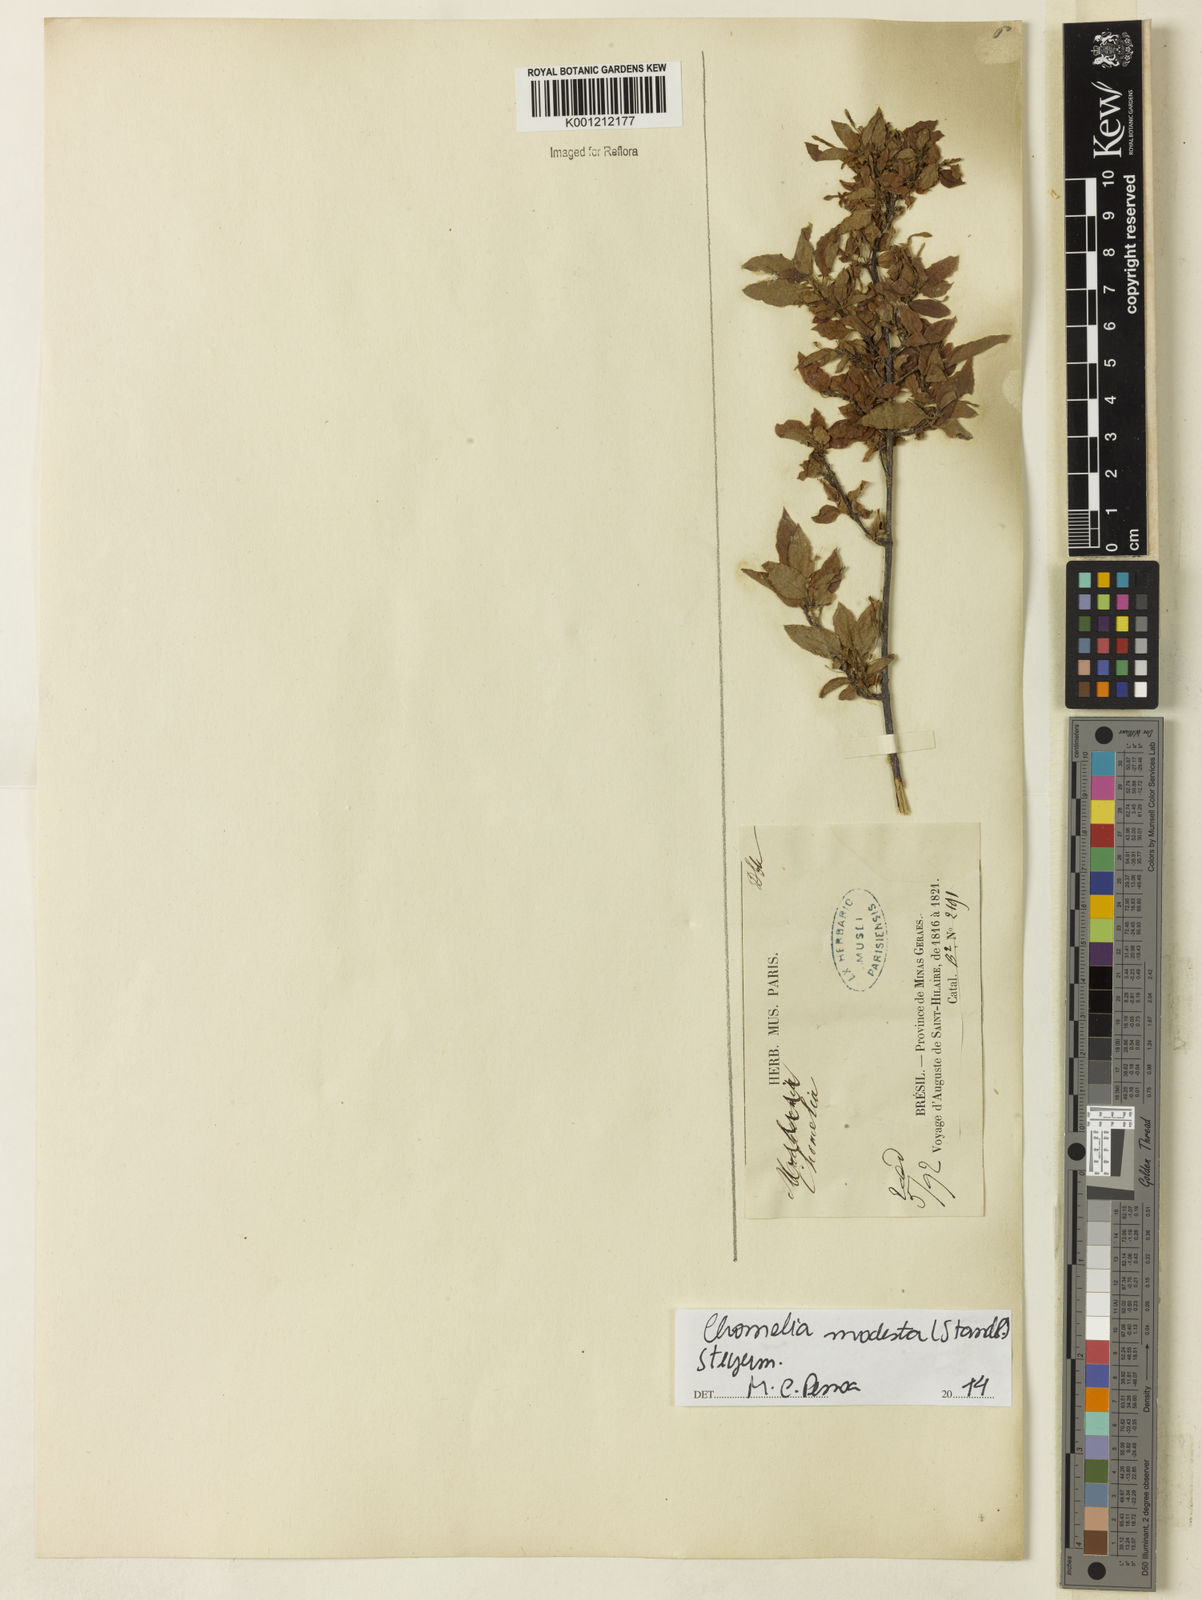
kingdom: Plantae
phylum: Tracheophyta
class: Magnoliopsida
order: Gentianales
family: Rubiaceae
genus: Chomelia
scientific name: Chomelia modesta
